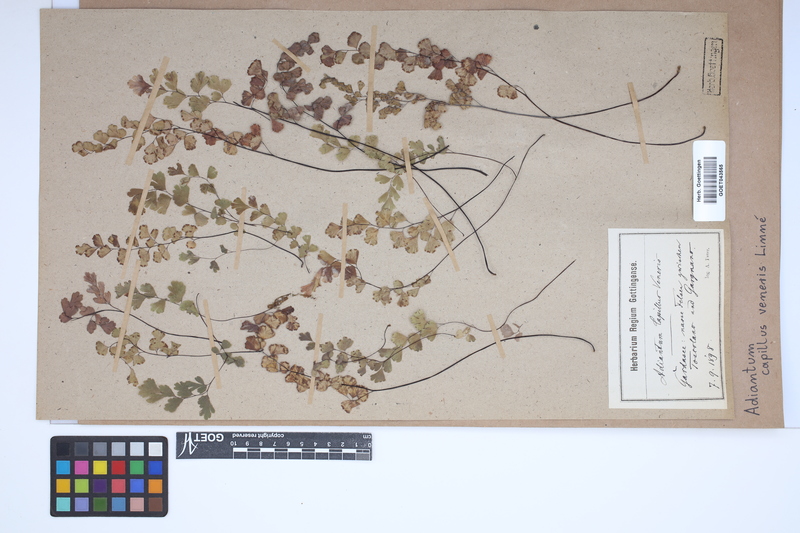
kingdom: Plantae
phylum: Tracheophyta
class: Polypodiopsida
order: Polypodiales
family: Pteridaceae
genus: Adiantum
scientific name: Adiantum capillus-veneris
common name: Maidenhair fern
